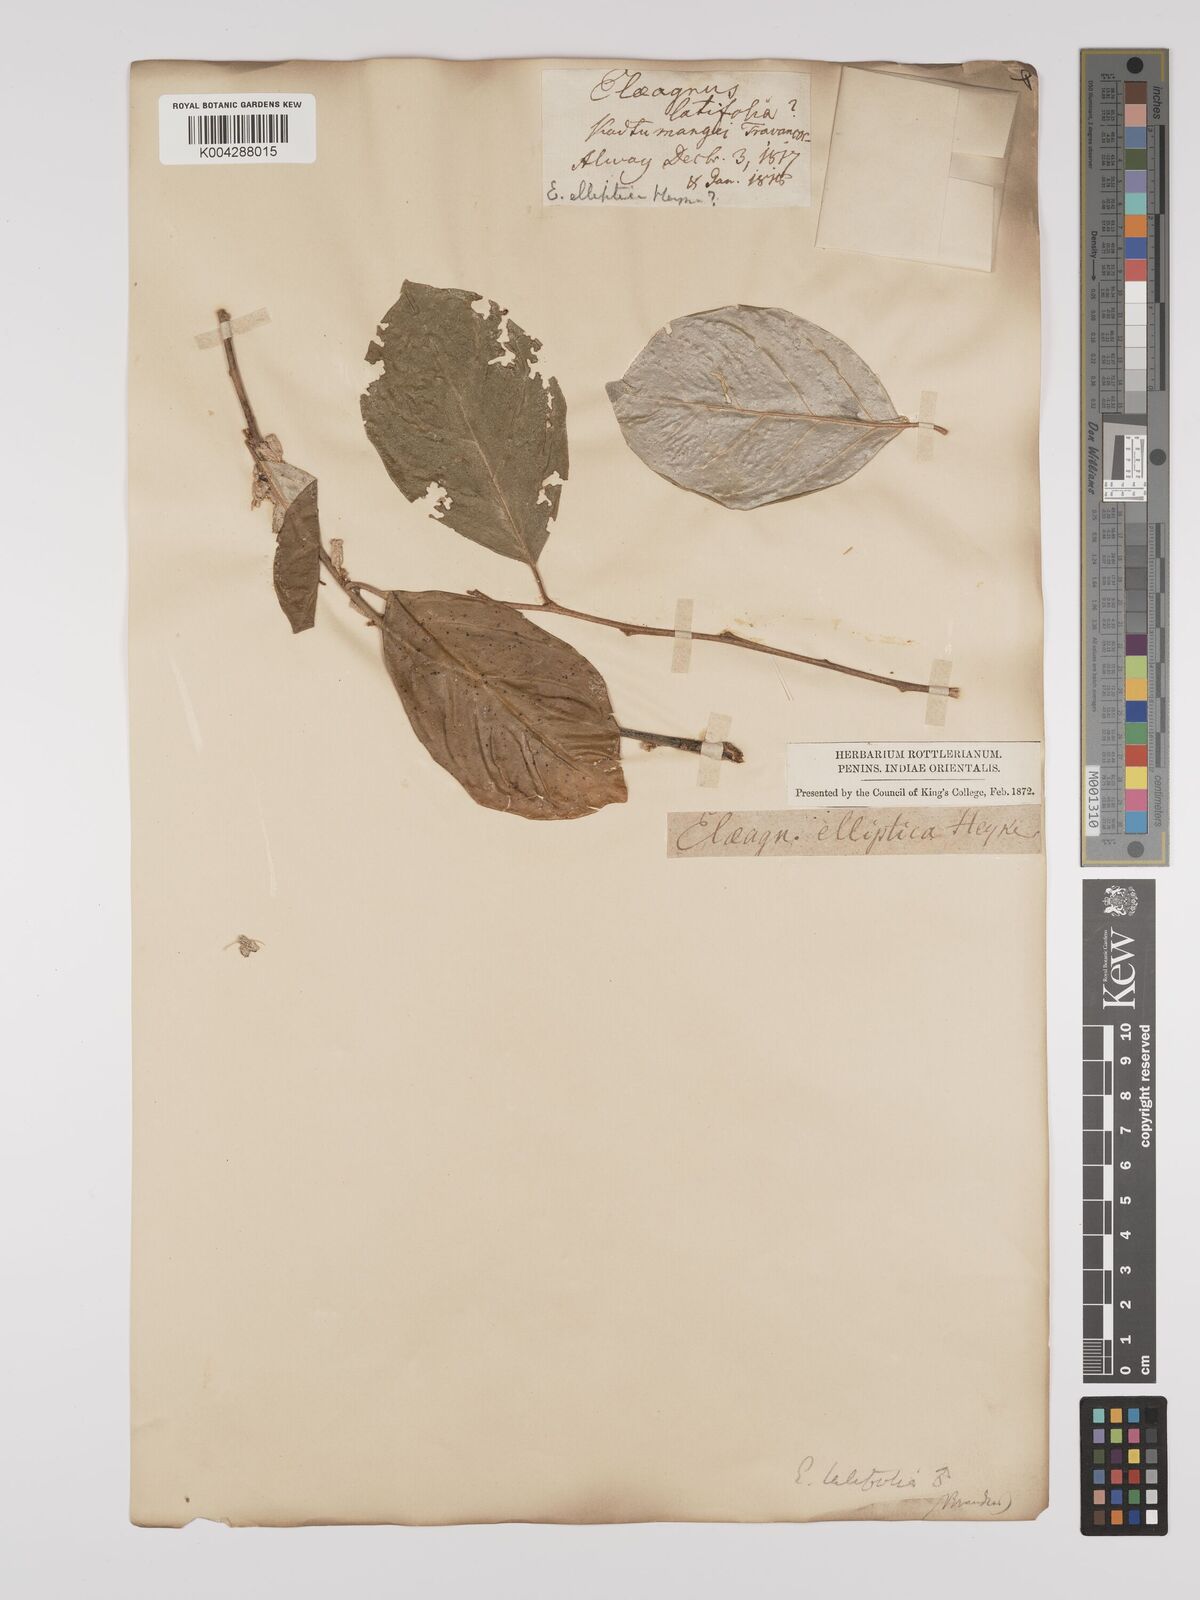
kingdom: Plantae
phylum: Tracheophyta
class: Magnoliopsida
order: Rosales
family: Elaeagnaceae
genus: Elaeagnus
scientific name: Elaeagnus latifolia
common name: Oleaster
